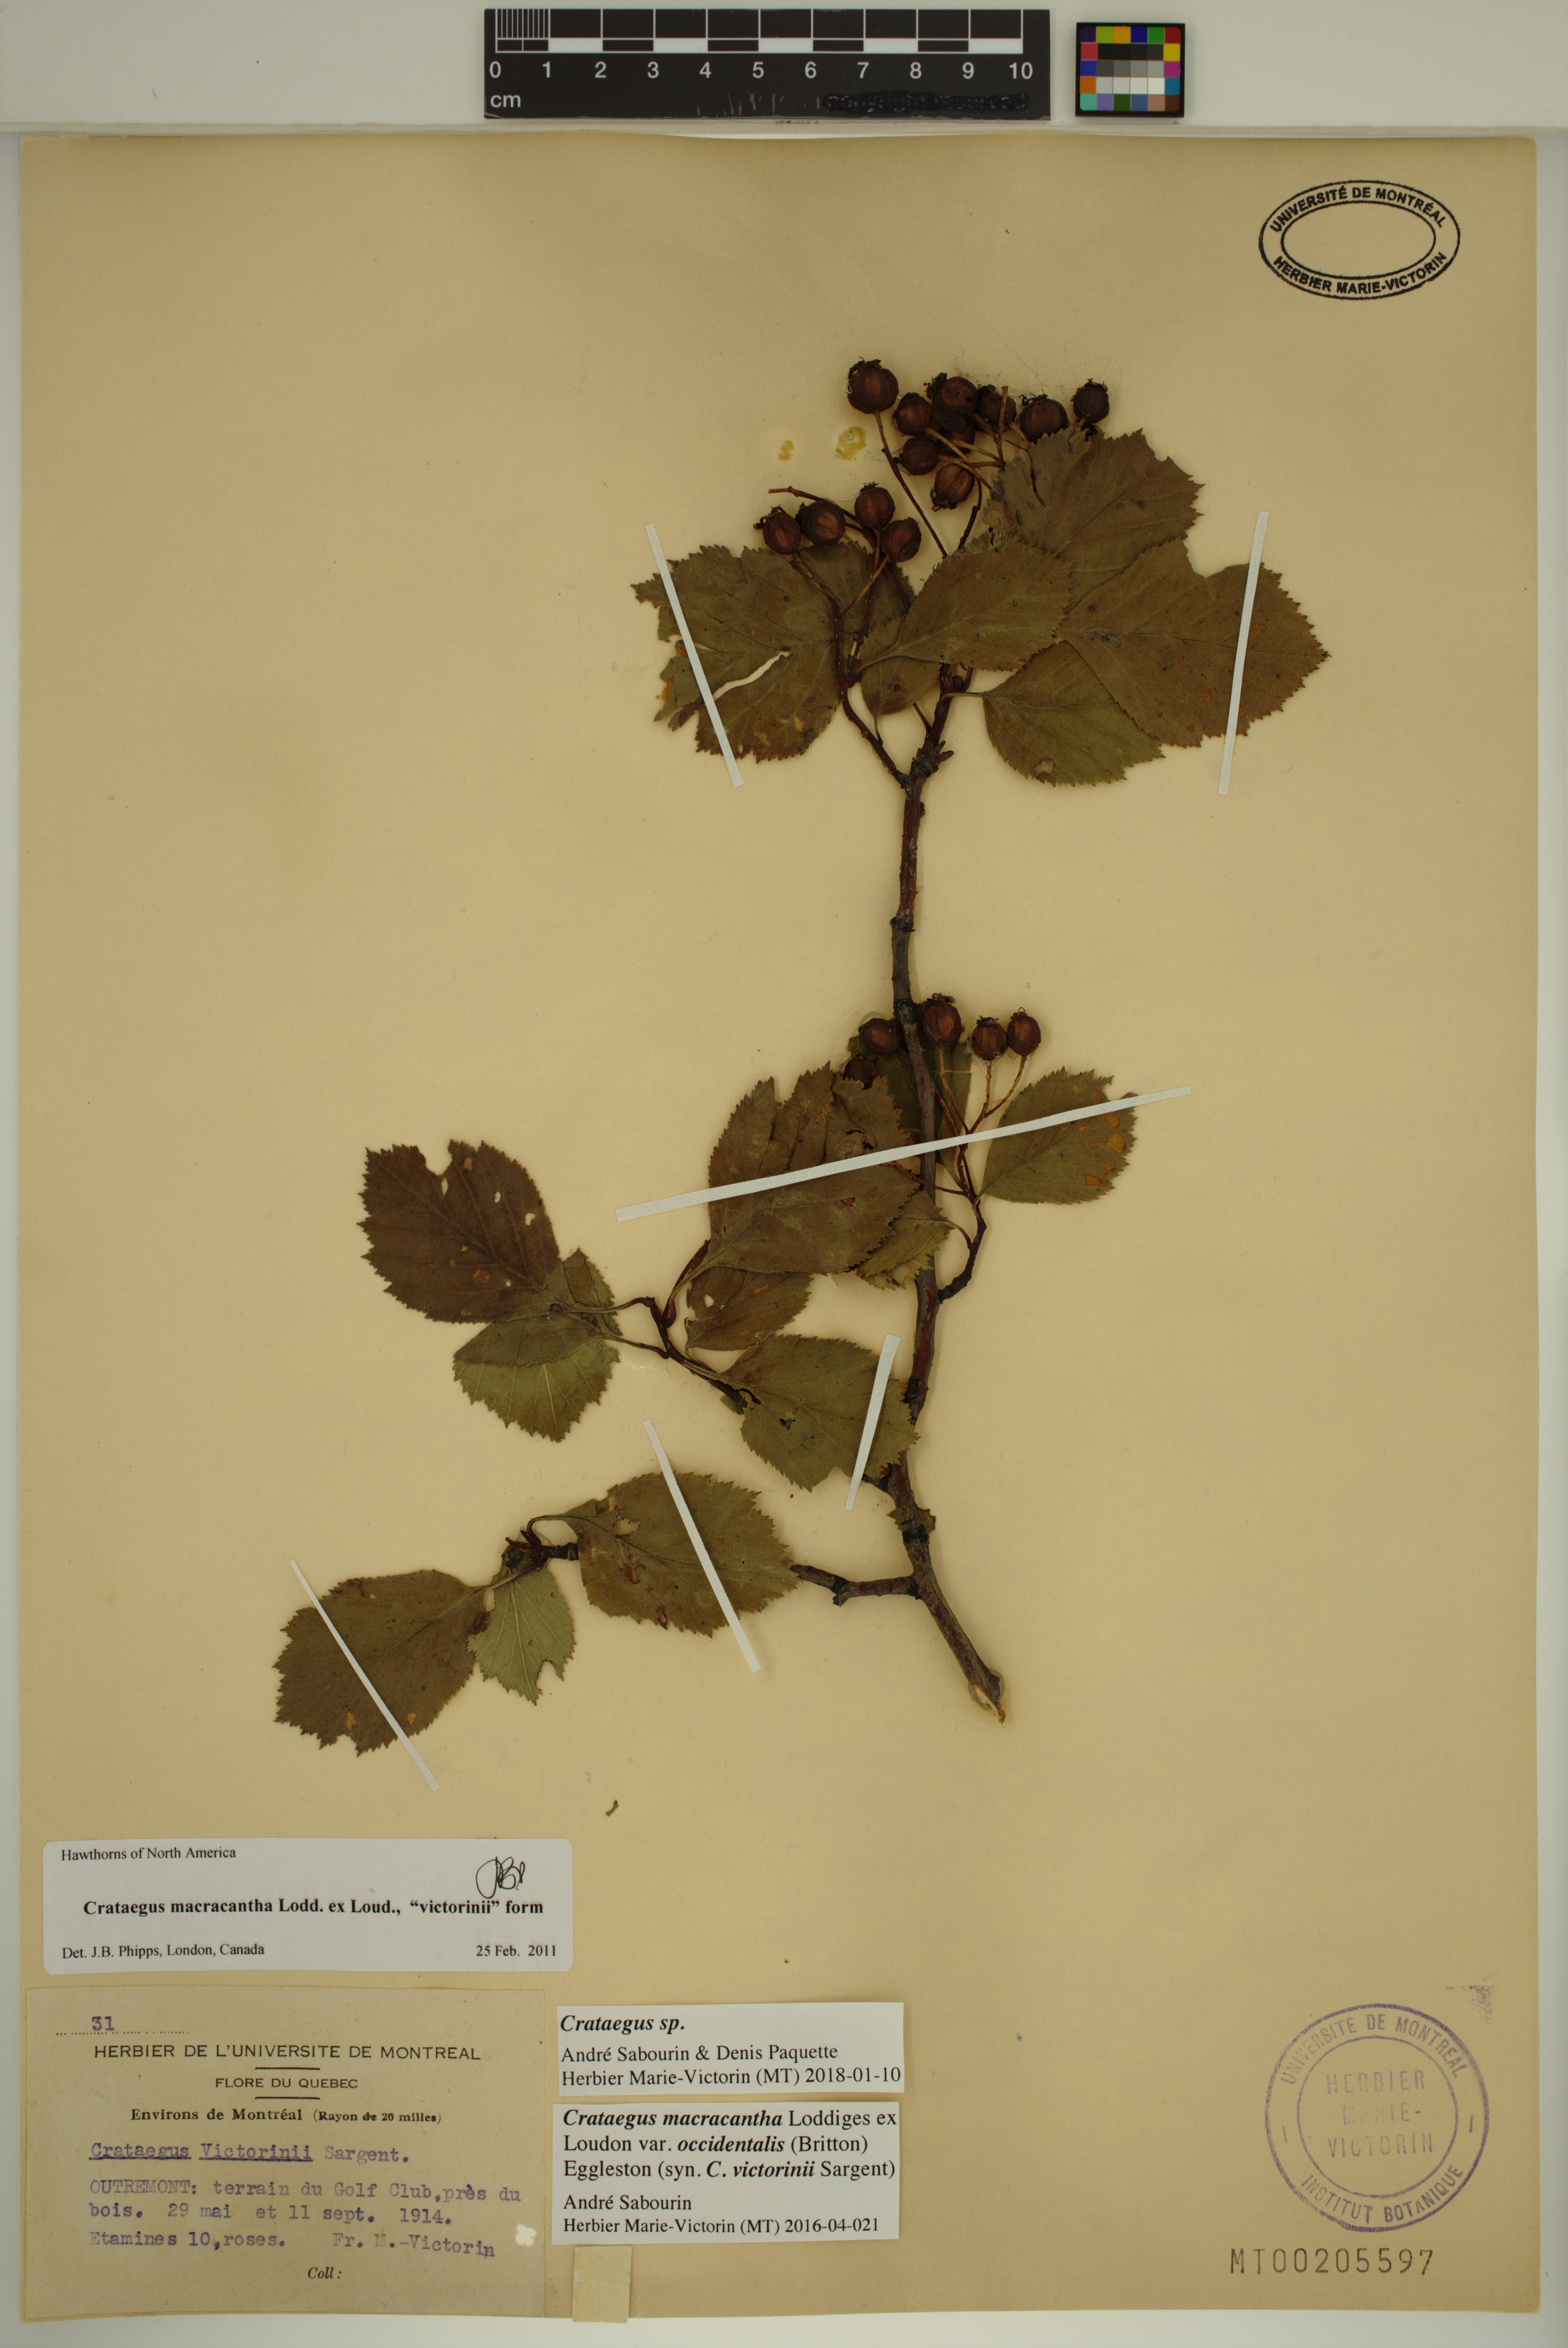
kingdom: Plantae
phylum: Tracheophyta
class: Magnoliopsida
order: Rosales
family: Rosaceae
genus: Crataegus
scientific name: Crataegus macracantha
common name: Large-thorn hawthorn
